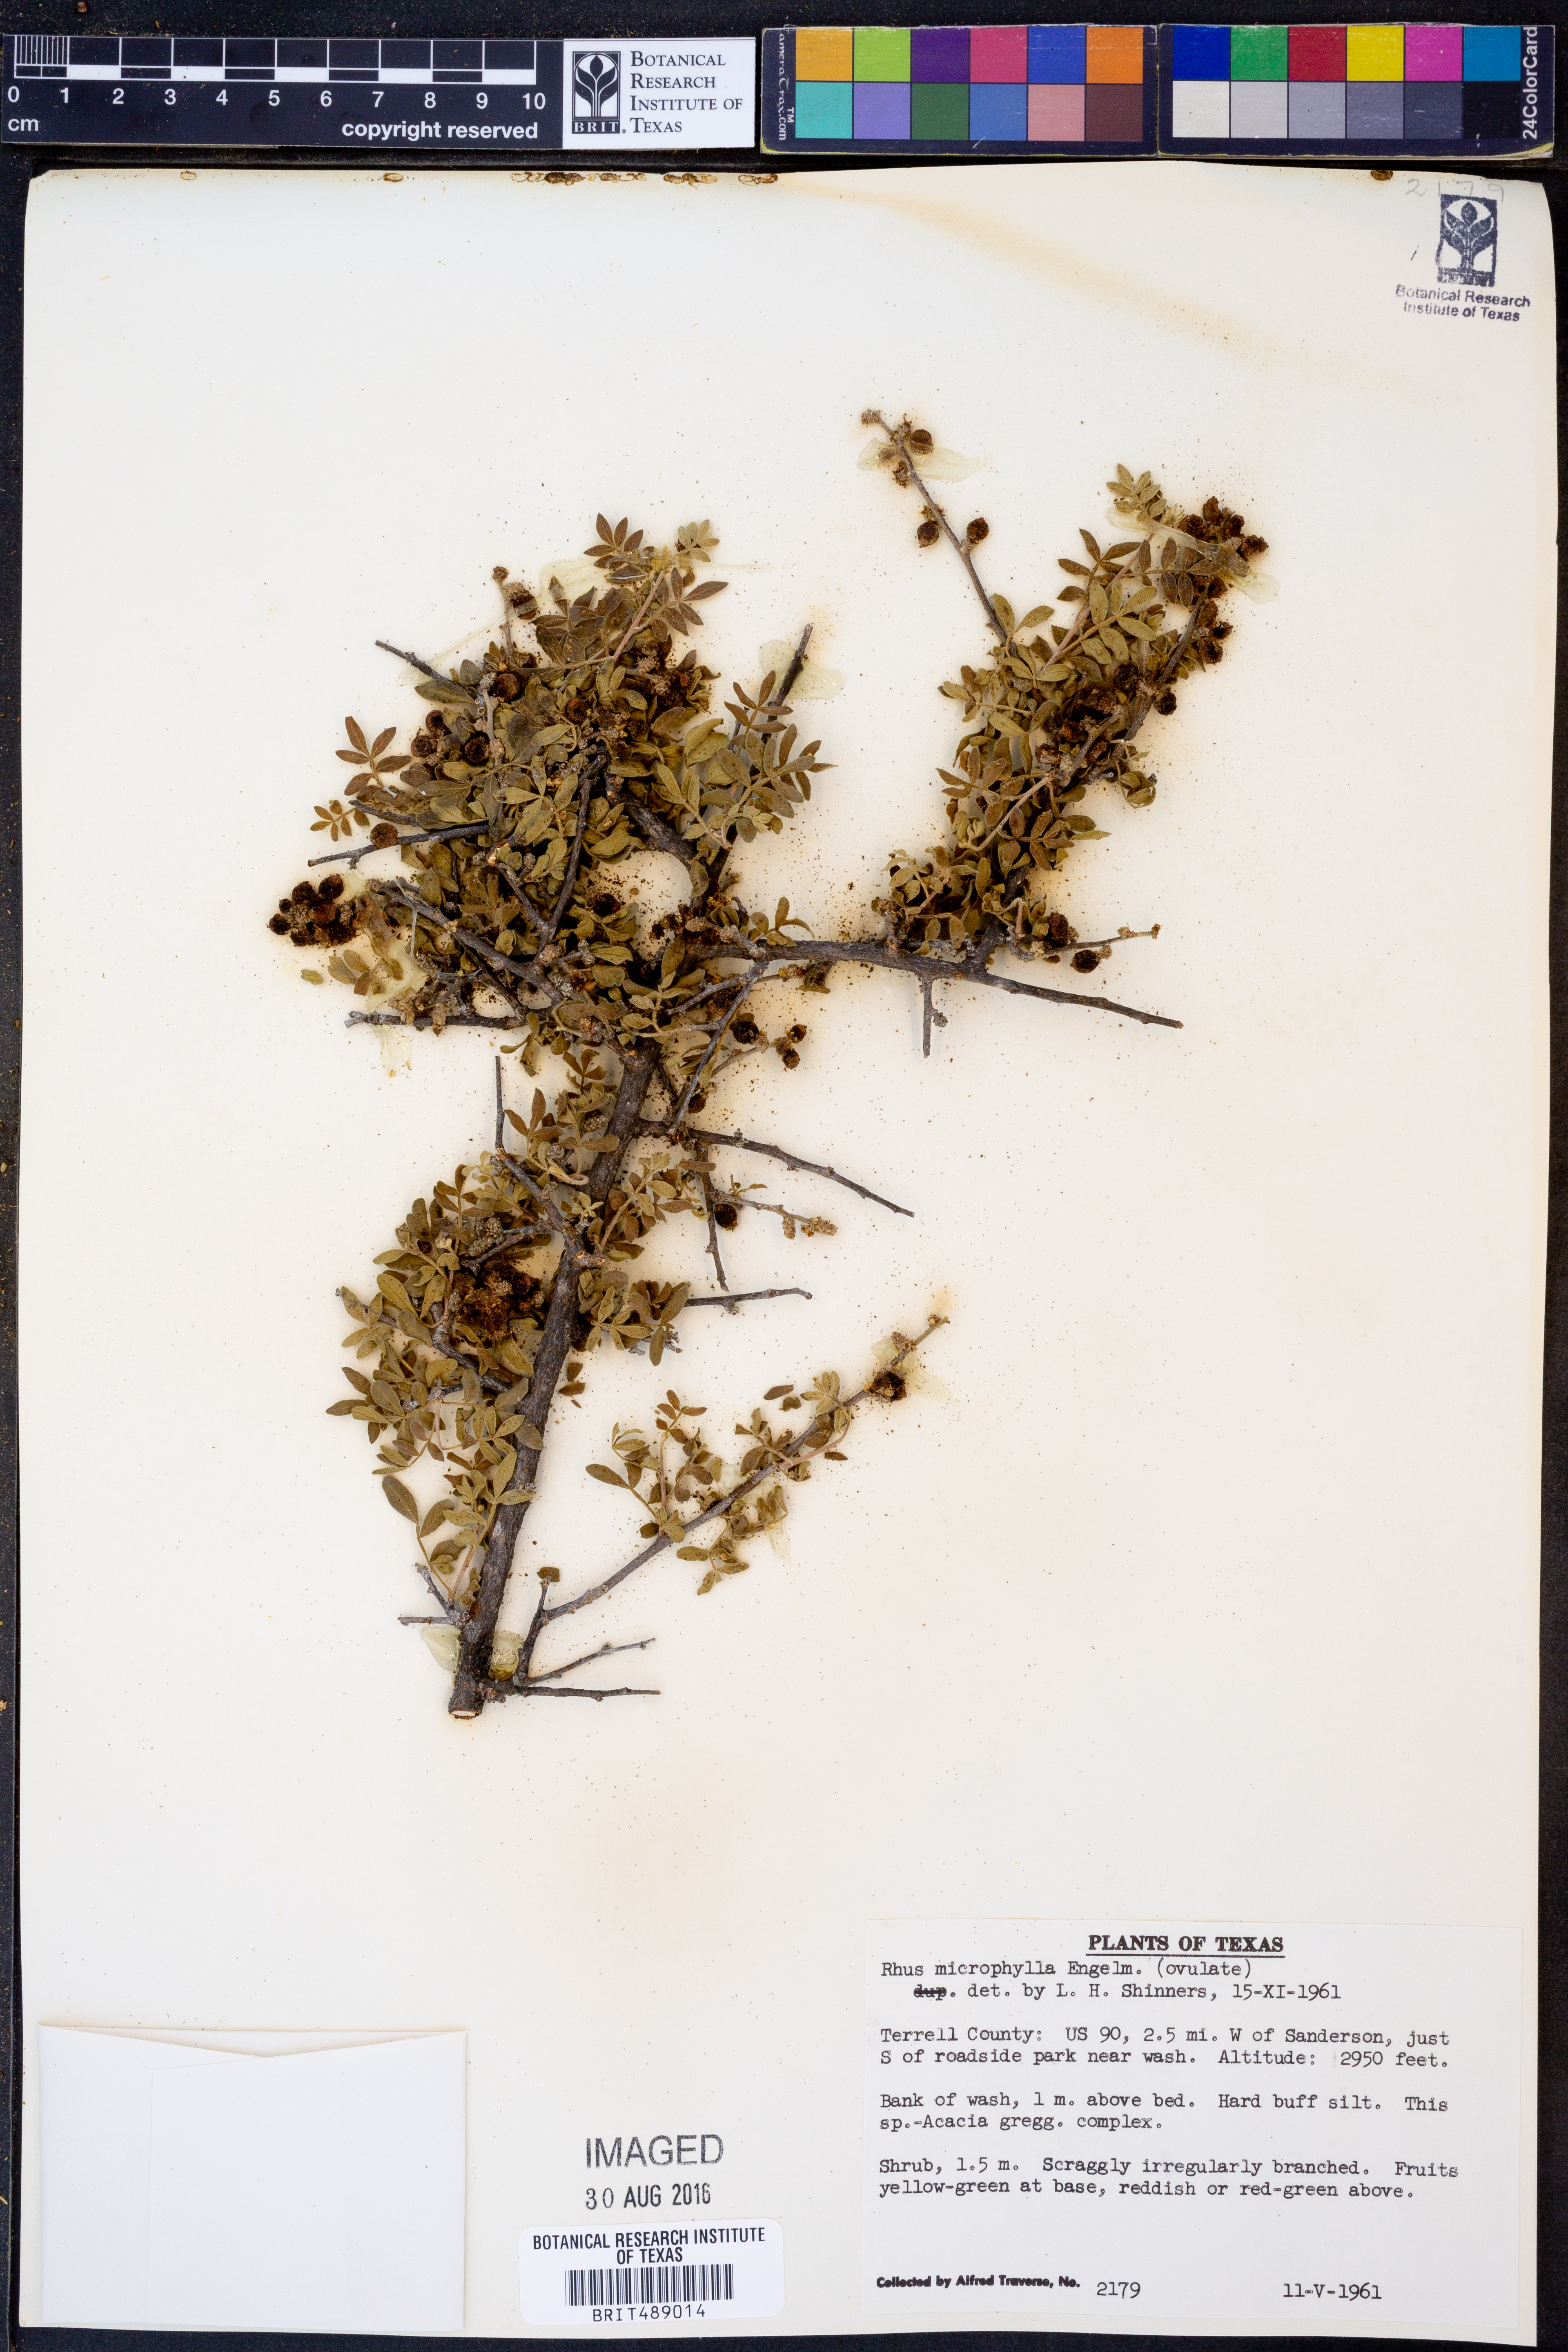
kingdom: Plantae
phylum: Tracheophyta
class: Magnoliopsida
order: Sapindales
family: Anacardiaceae
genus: Rhus
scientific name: Rhus microphylla
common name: Desert sumac
